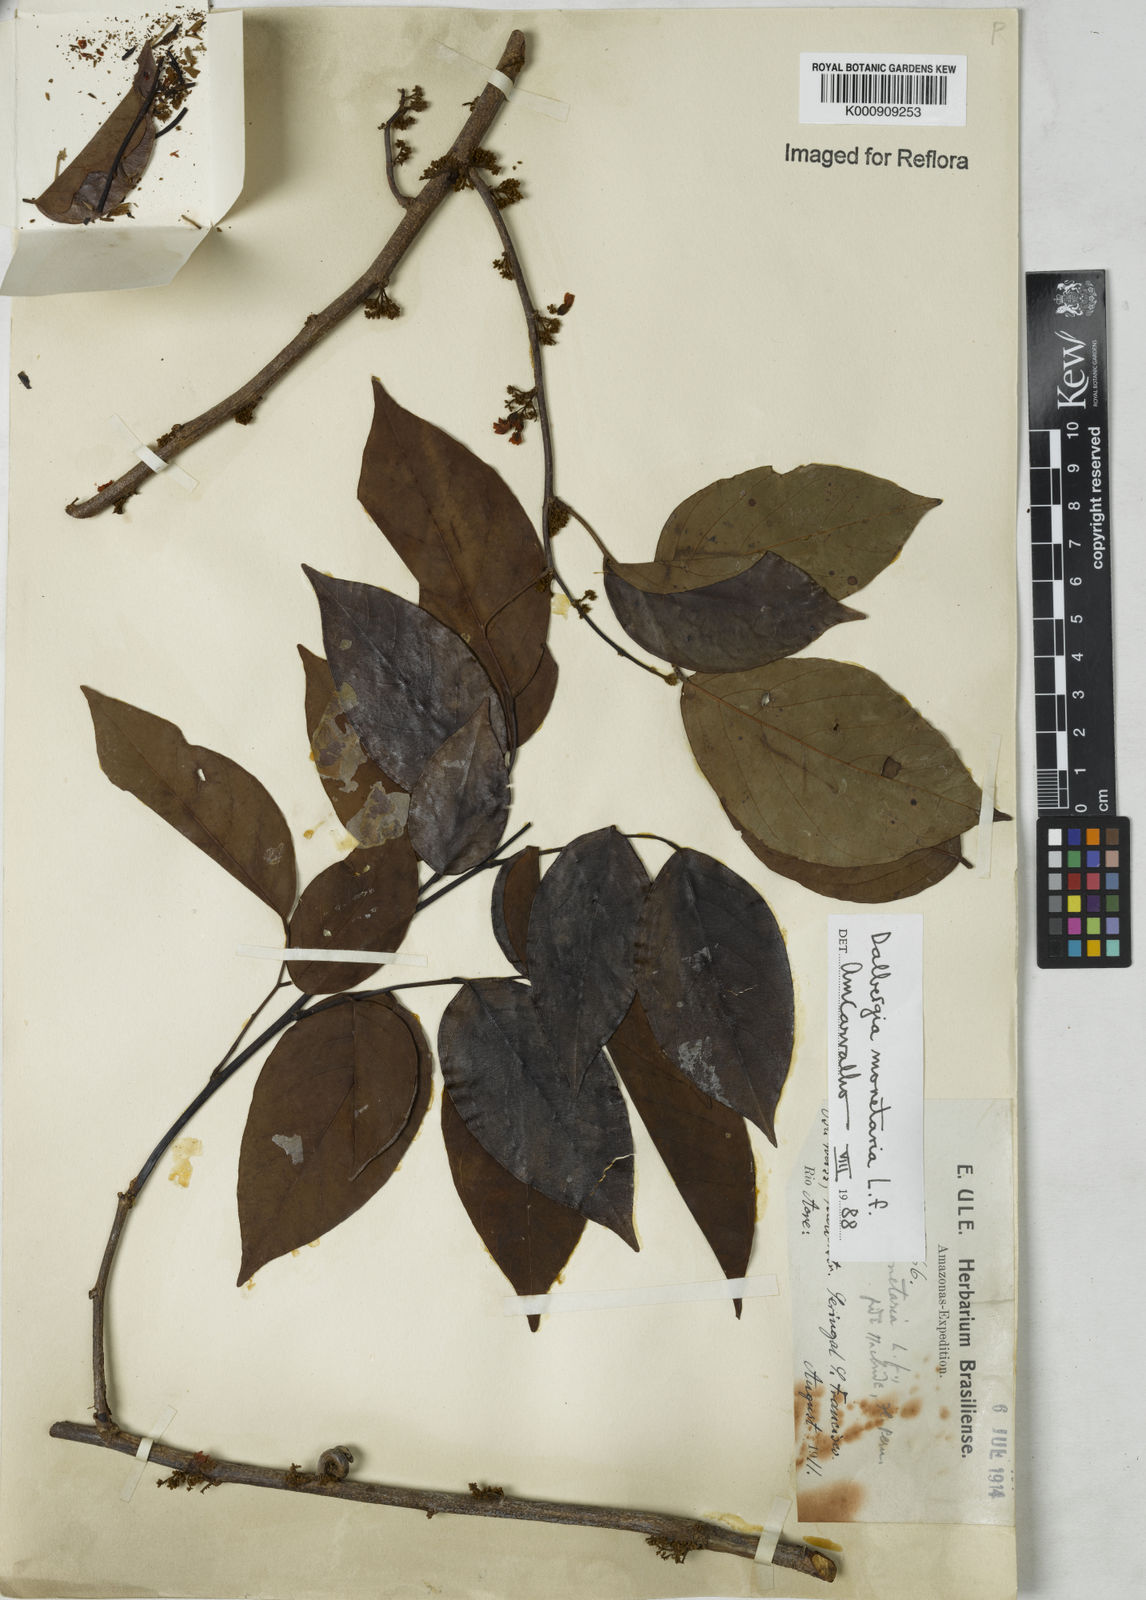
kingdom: Plantae
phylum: Tracheophyta
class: Magnoliopsida
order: Fabales
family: Fabaceae
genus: Dalbergia
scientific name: Dalbergia ovalis
